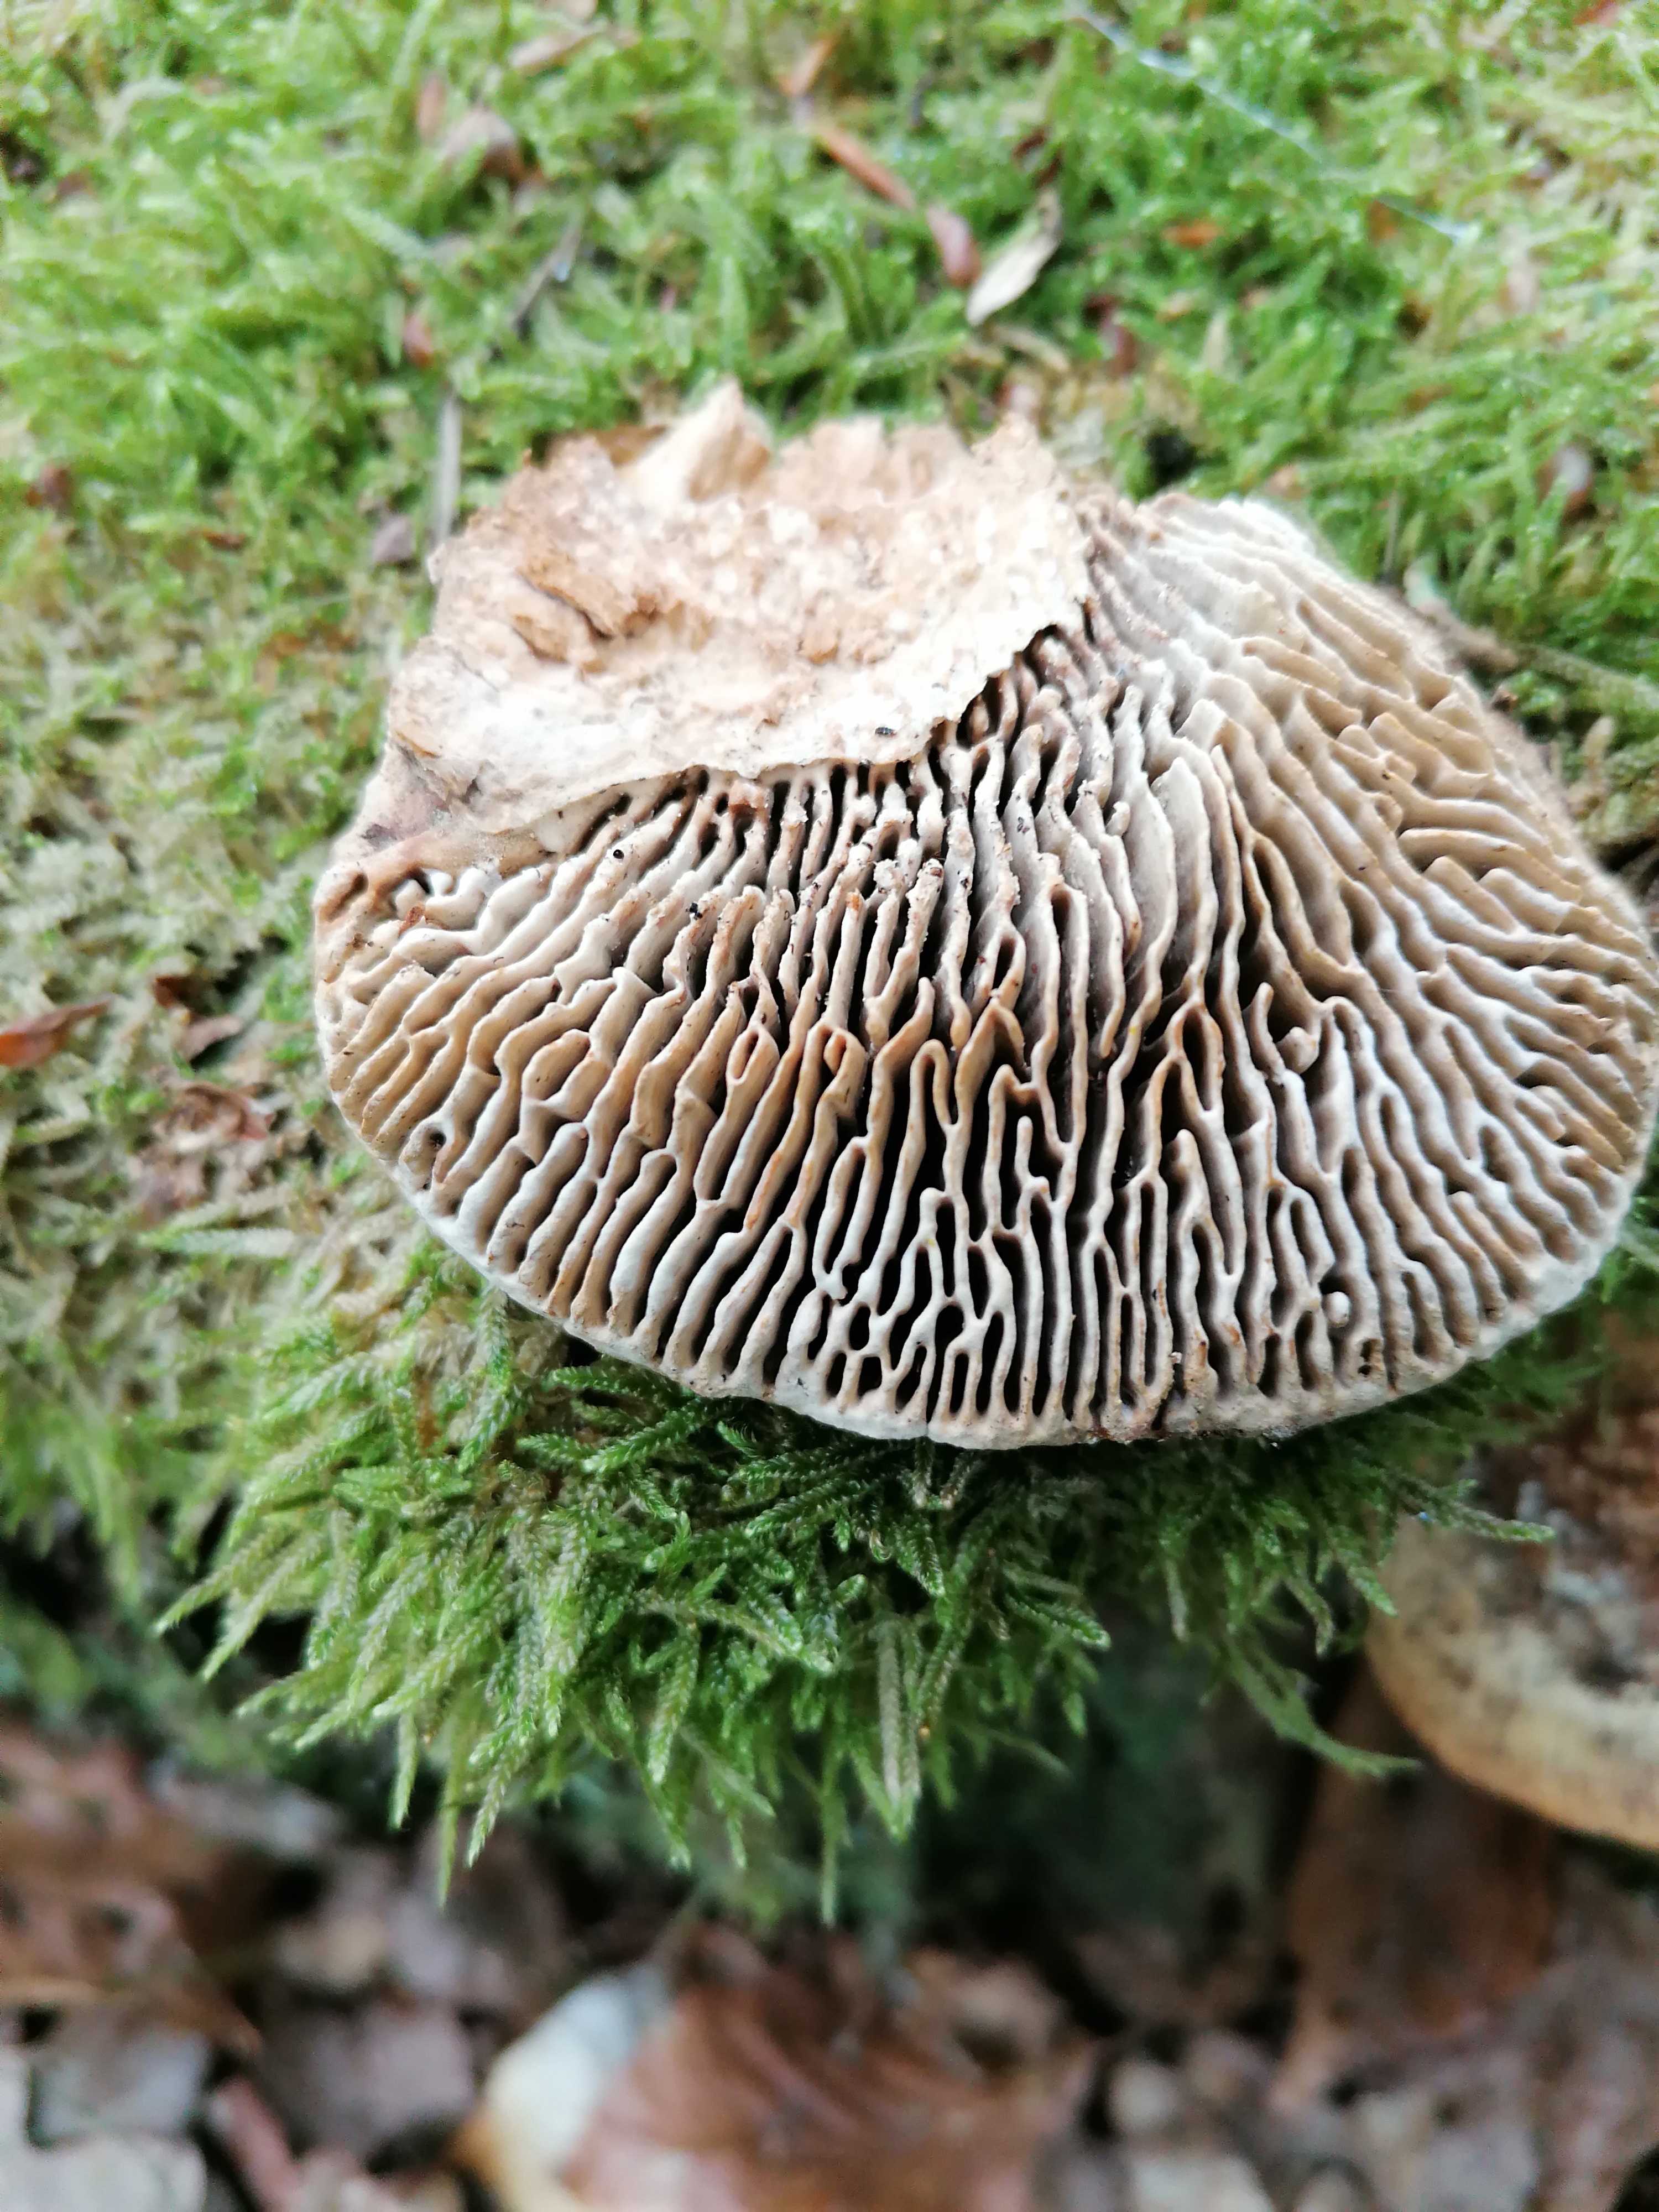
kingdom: Fungi
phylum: Basidiomycota
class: Agaricomycetes
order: Polyporales
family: Fomitopsidaceae
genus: Daedalea
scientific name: Daedalea quercina
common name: ege-labyrintsvamp
